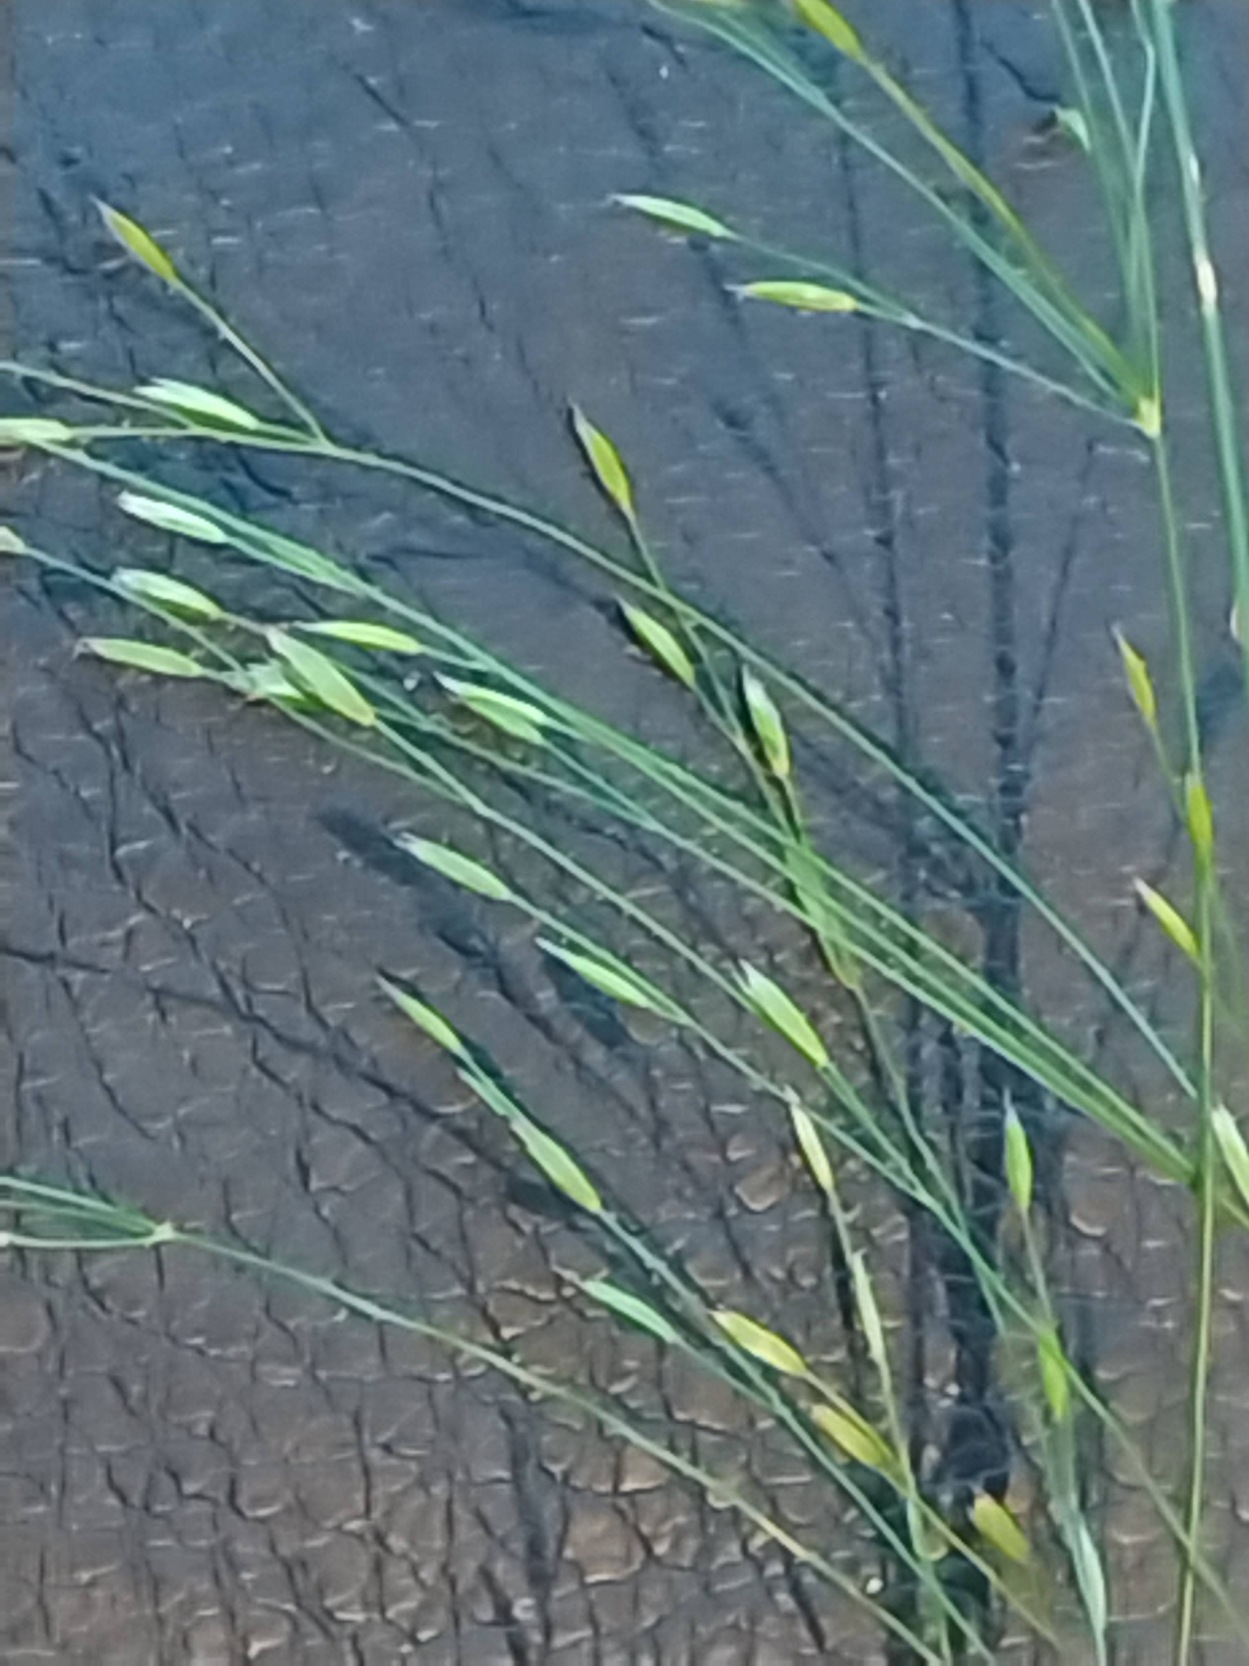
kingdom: Plantae
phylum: Tracheophyta
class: Liliopsida
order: Poales
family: Poaceae
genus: Poa
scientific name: Poa palustris
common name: Stortoppet rapgræs
